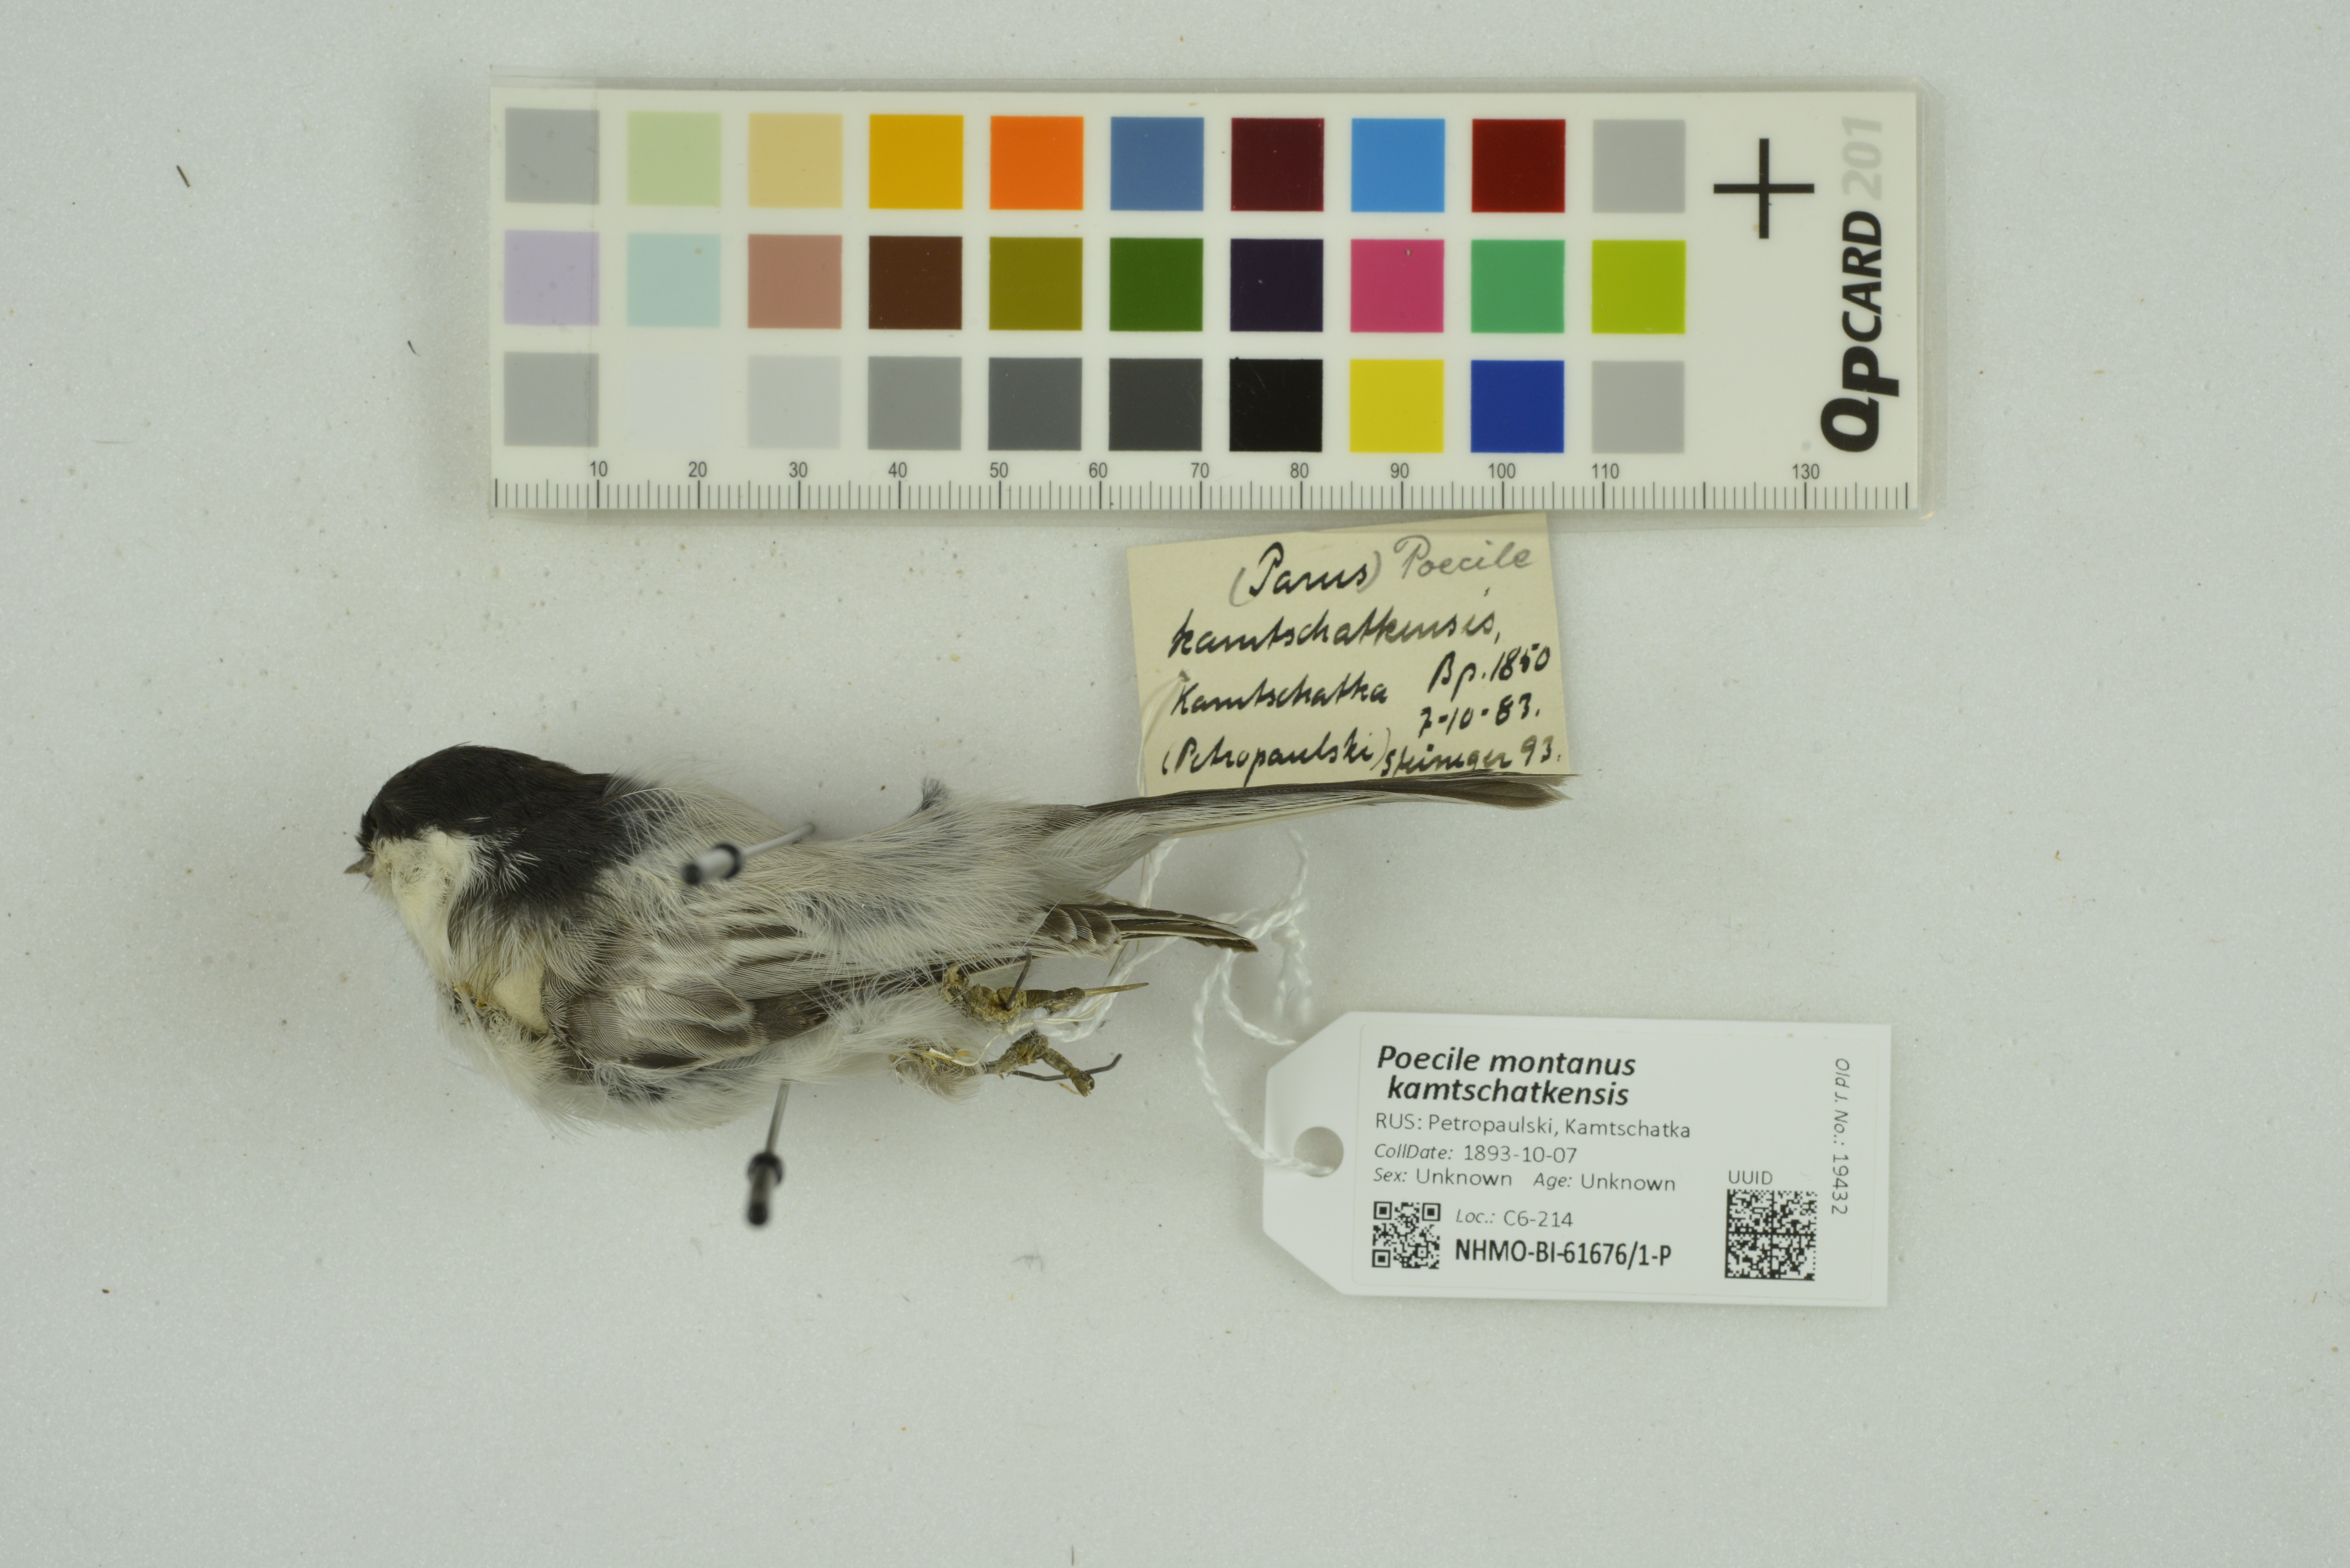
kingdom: Animalia
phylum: Chordata
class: Aves
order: Passeriformes
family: Paridae
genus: Poecile
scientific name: Poecile montanus
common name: Willow tit
